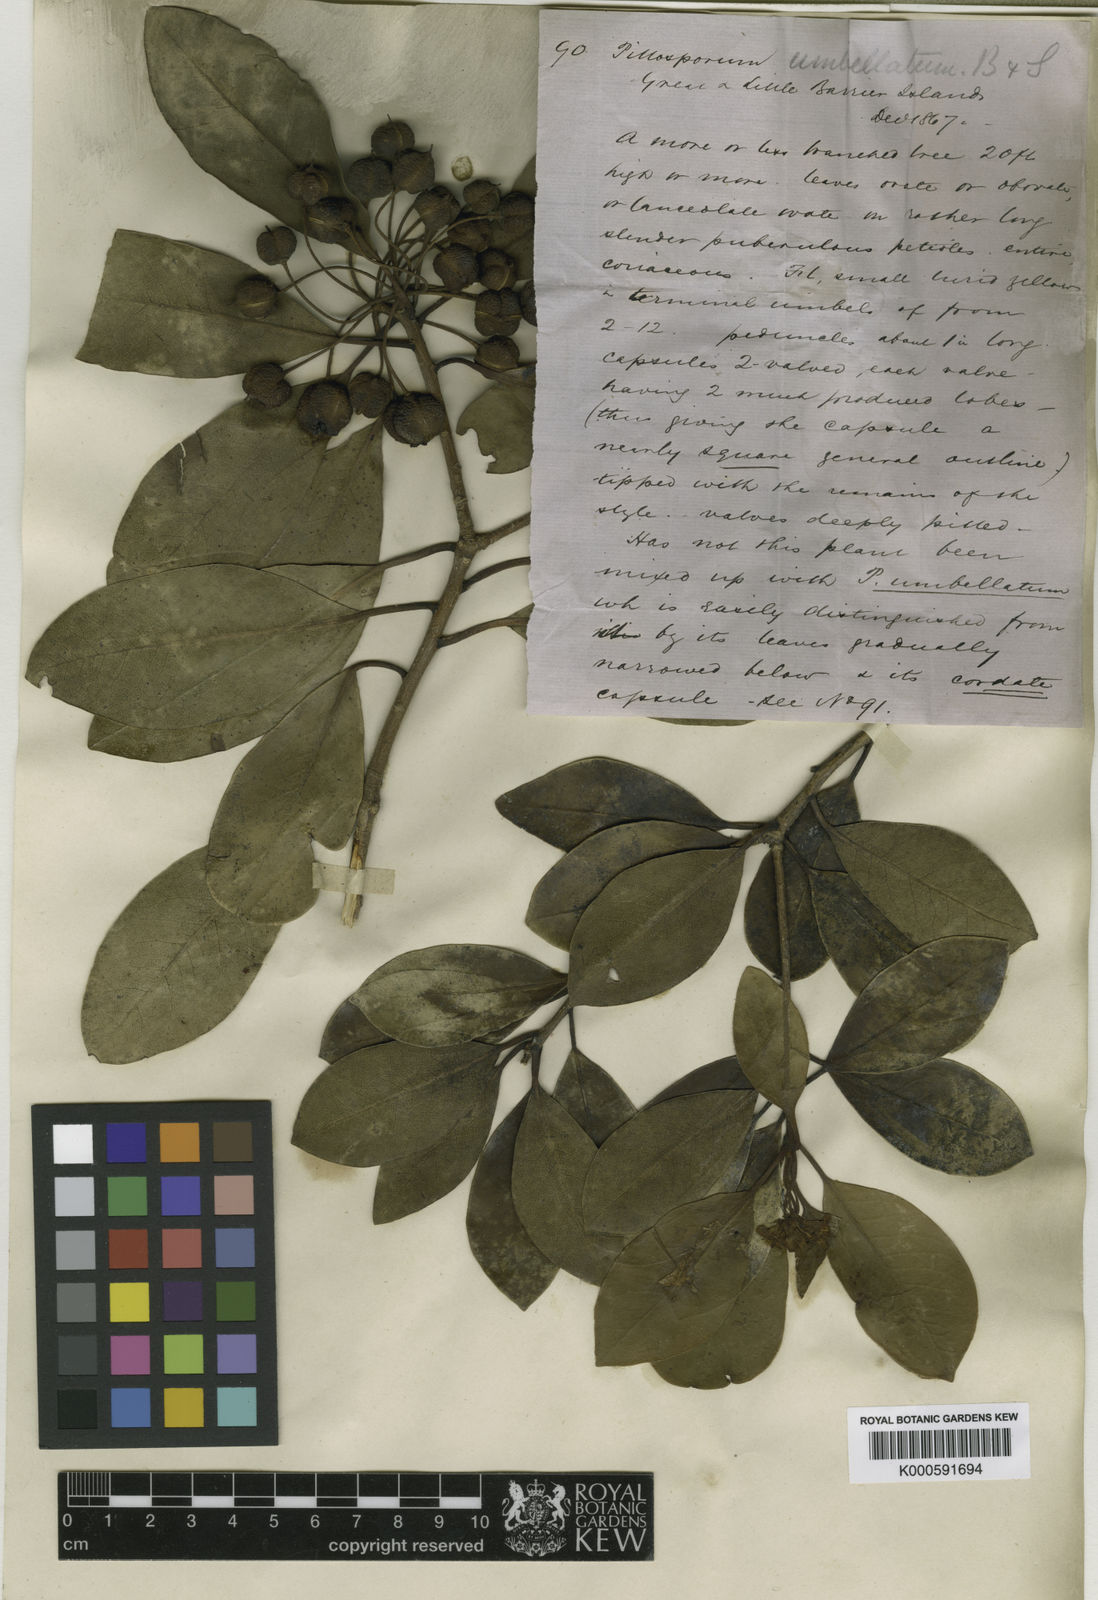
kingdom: Plantae
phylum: Tracheophyta
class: Magnoliopsida
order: Apiales
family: Pittosporaceae
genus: Pittosporum
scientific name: Pittosporum
